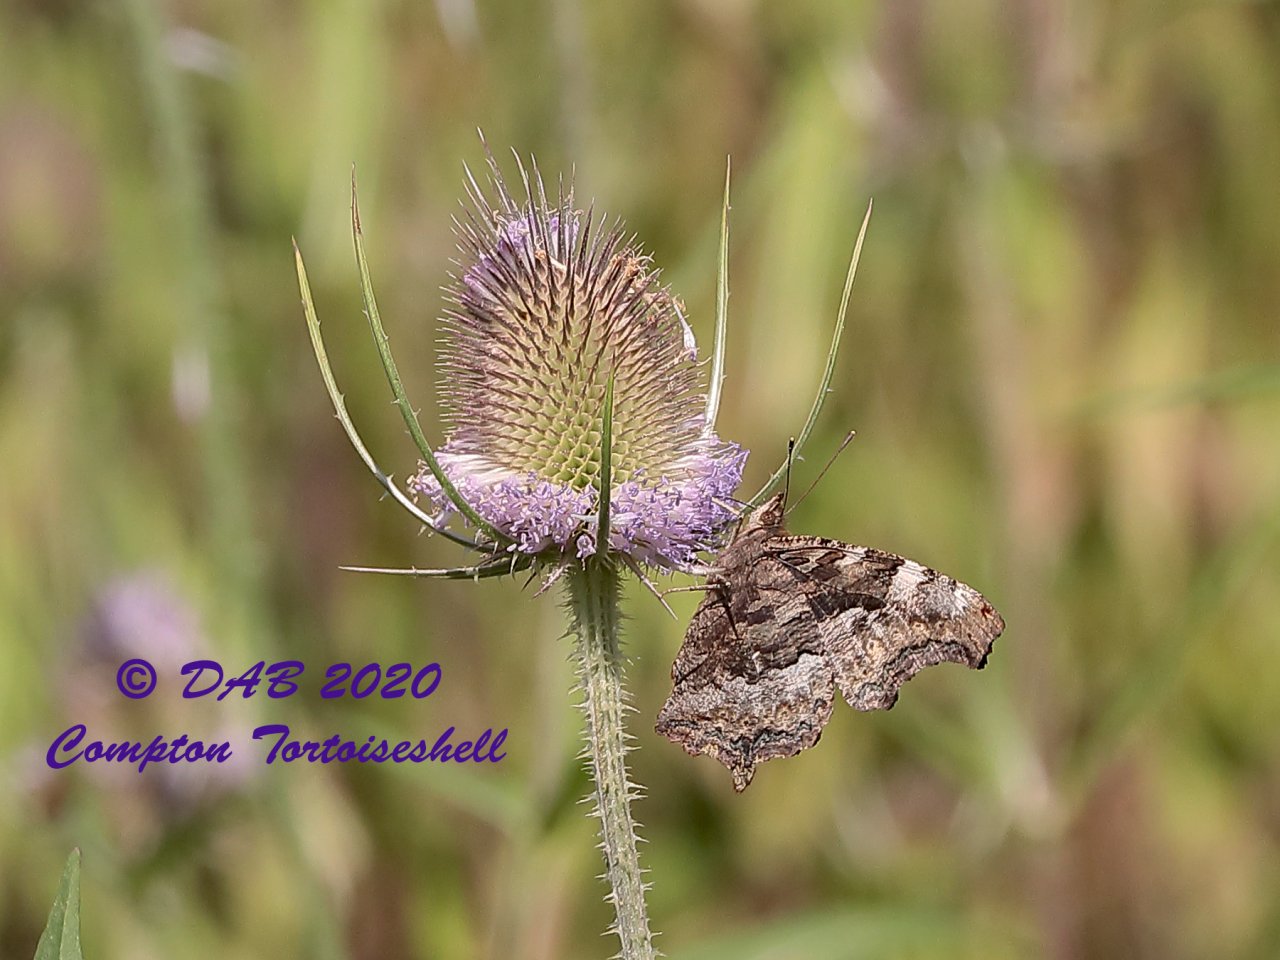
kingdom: Animalia
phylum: Arthropoda
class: Insecta
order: Lepidoptera
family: Nymphalidae
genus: Polygonia
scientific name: Polygonia vaualbum
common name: Compton Tortoiseshell
